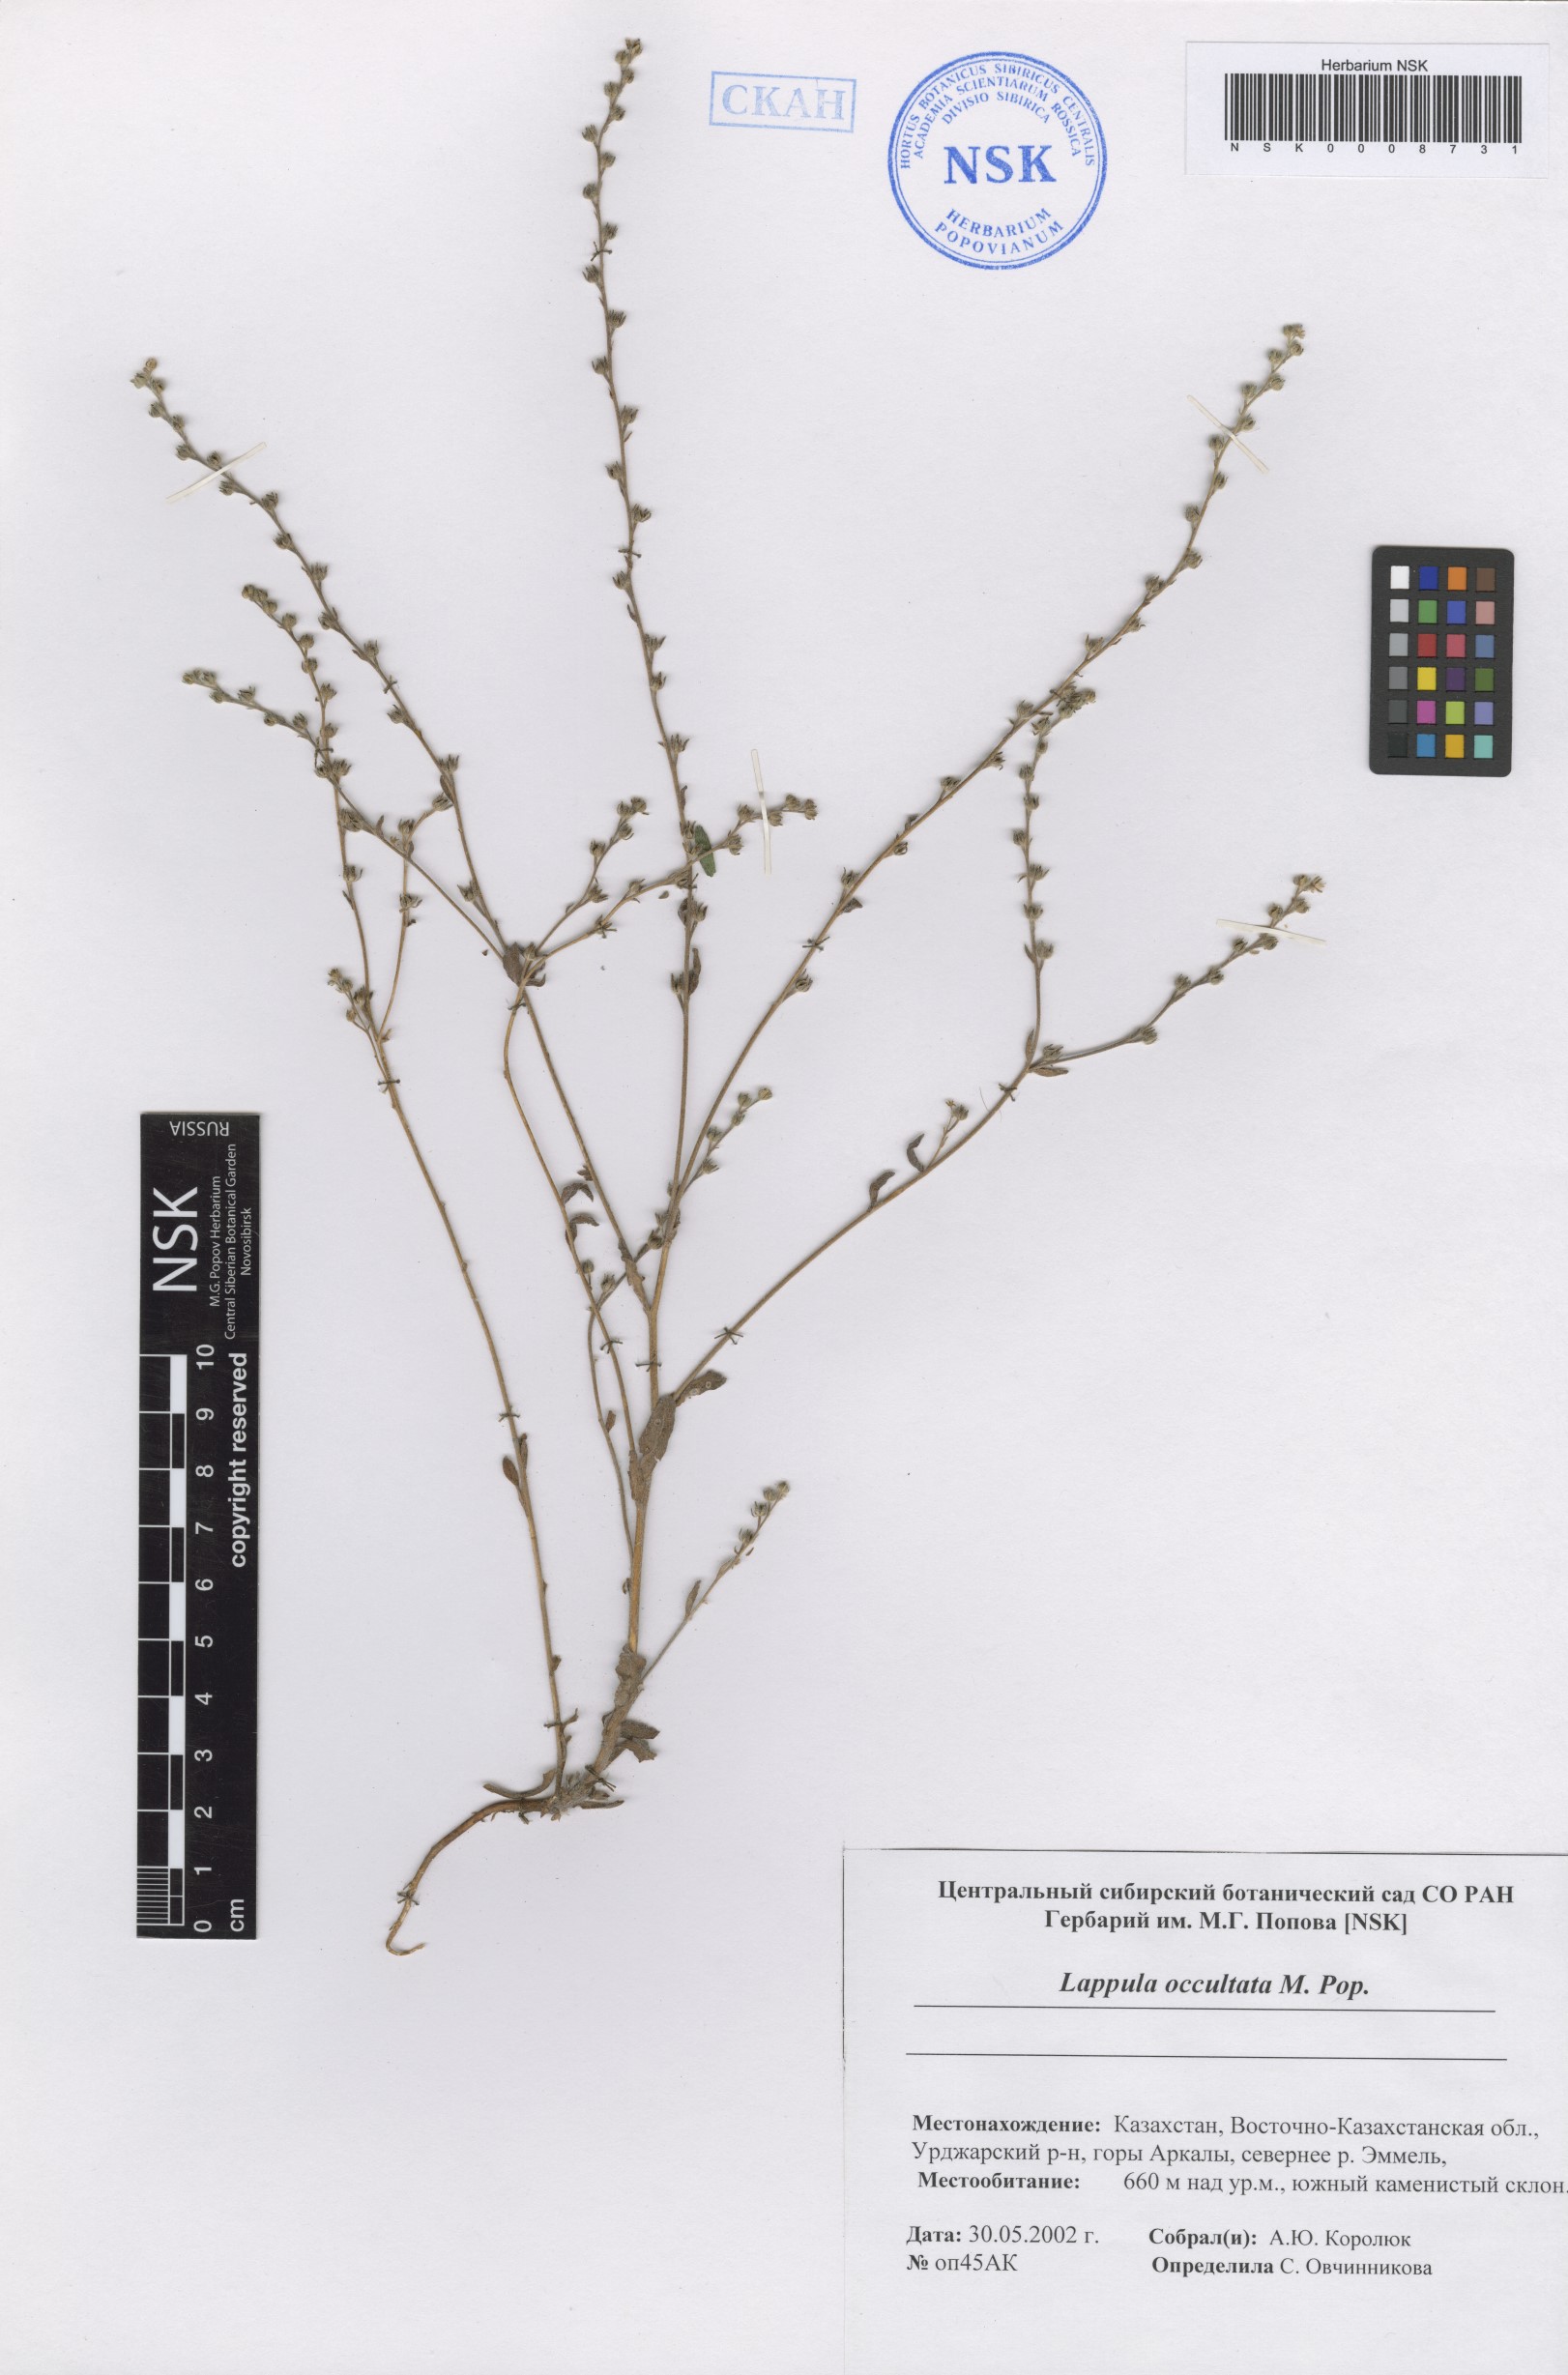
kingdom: Plantae
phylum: Tracheophyta
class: Magnoliopsida
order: Boraginales
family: Boraginaceae
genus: Lappula
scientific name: Lappula occultata
